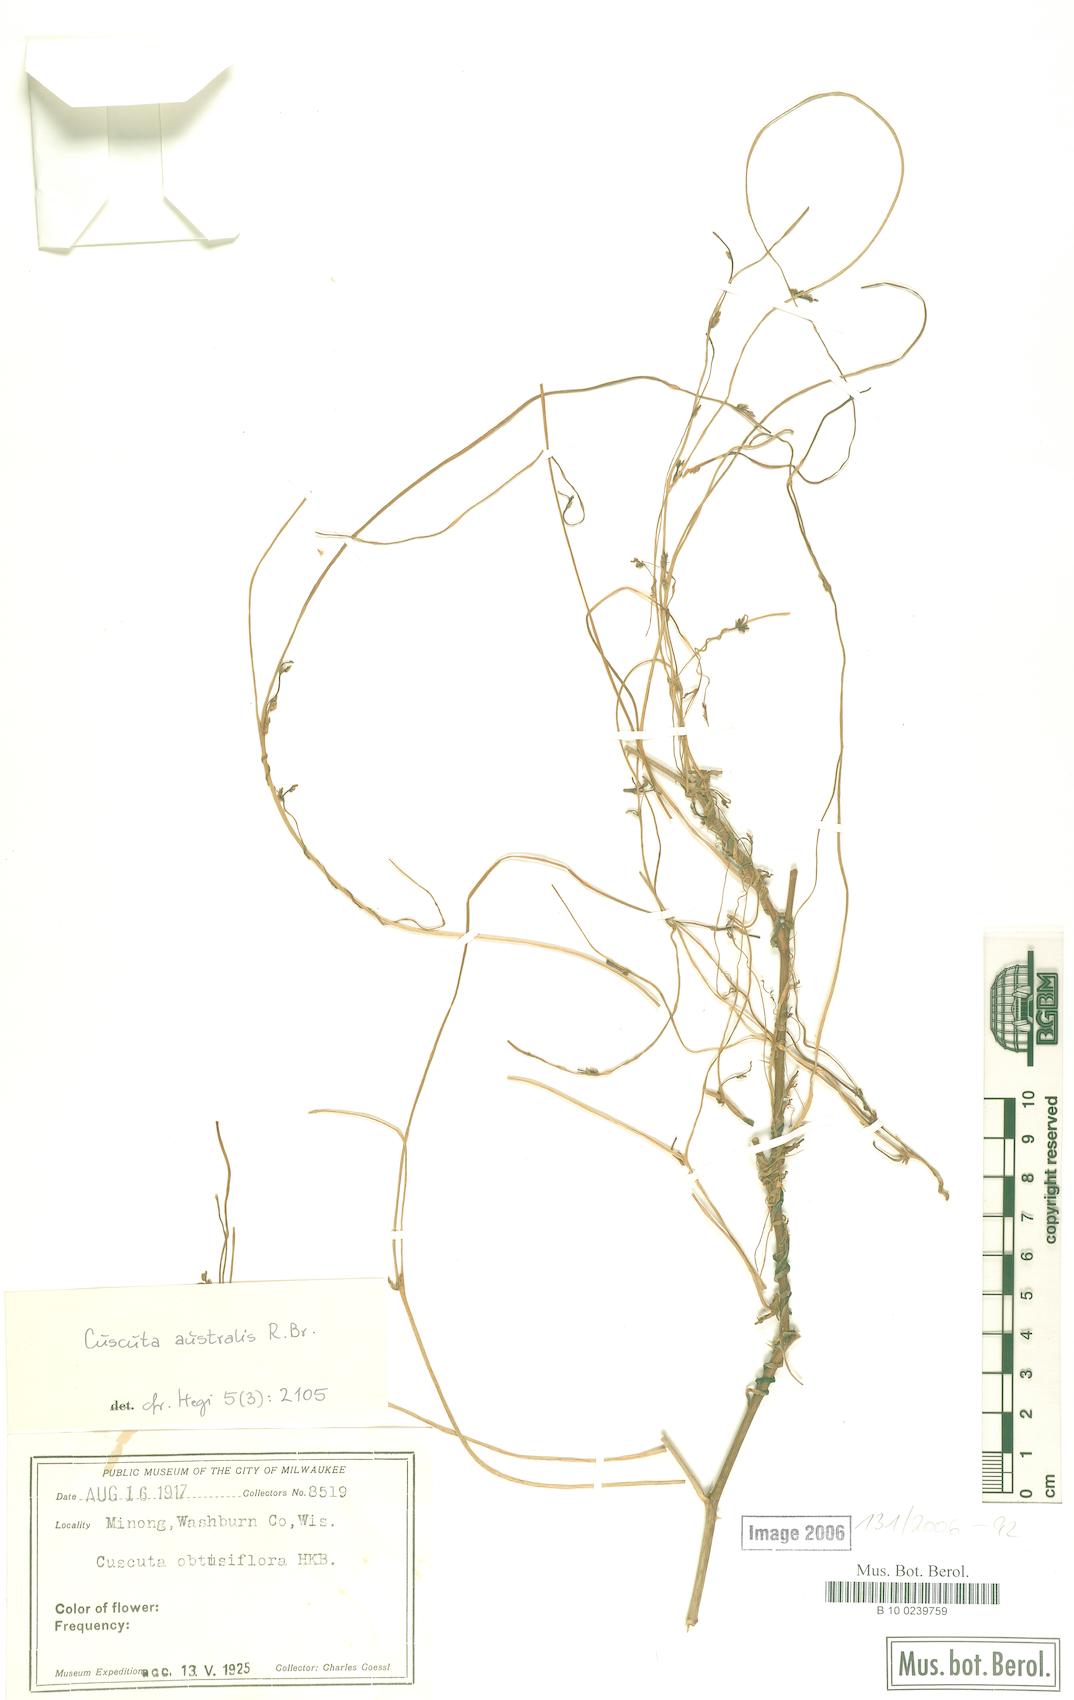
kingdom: Plantae
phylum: Tracheophyta
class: Magnoliopsida
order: Solanales
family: Convolvulaceae
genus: Cuscuta
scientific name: Cuscuta australis
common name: Australian dodder
